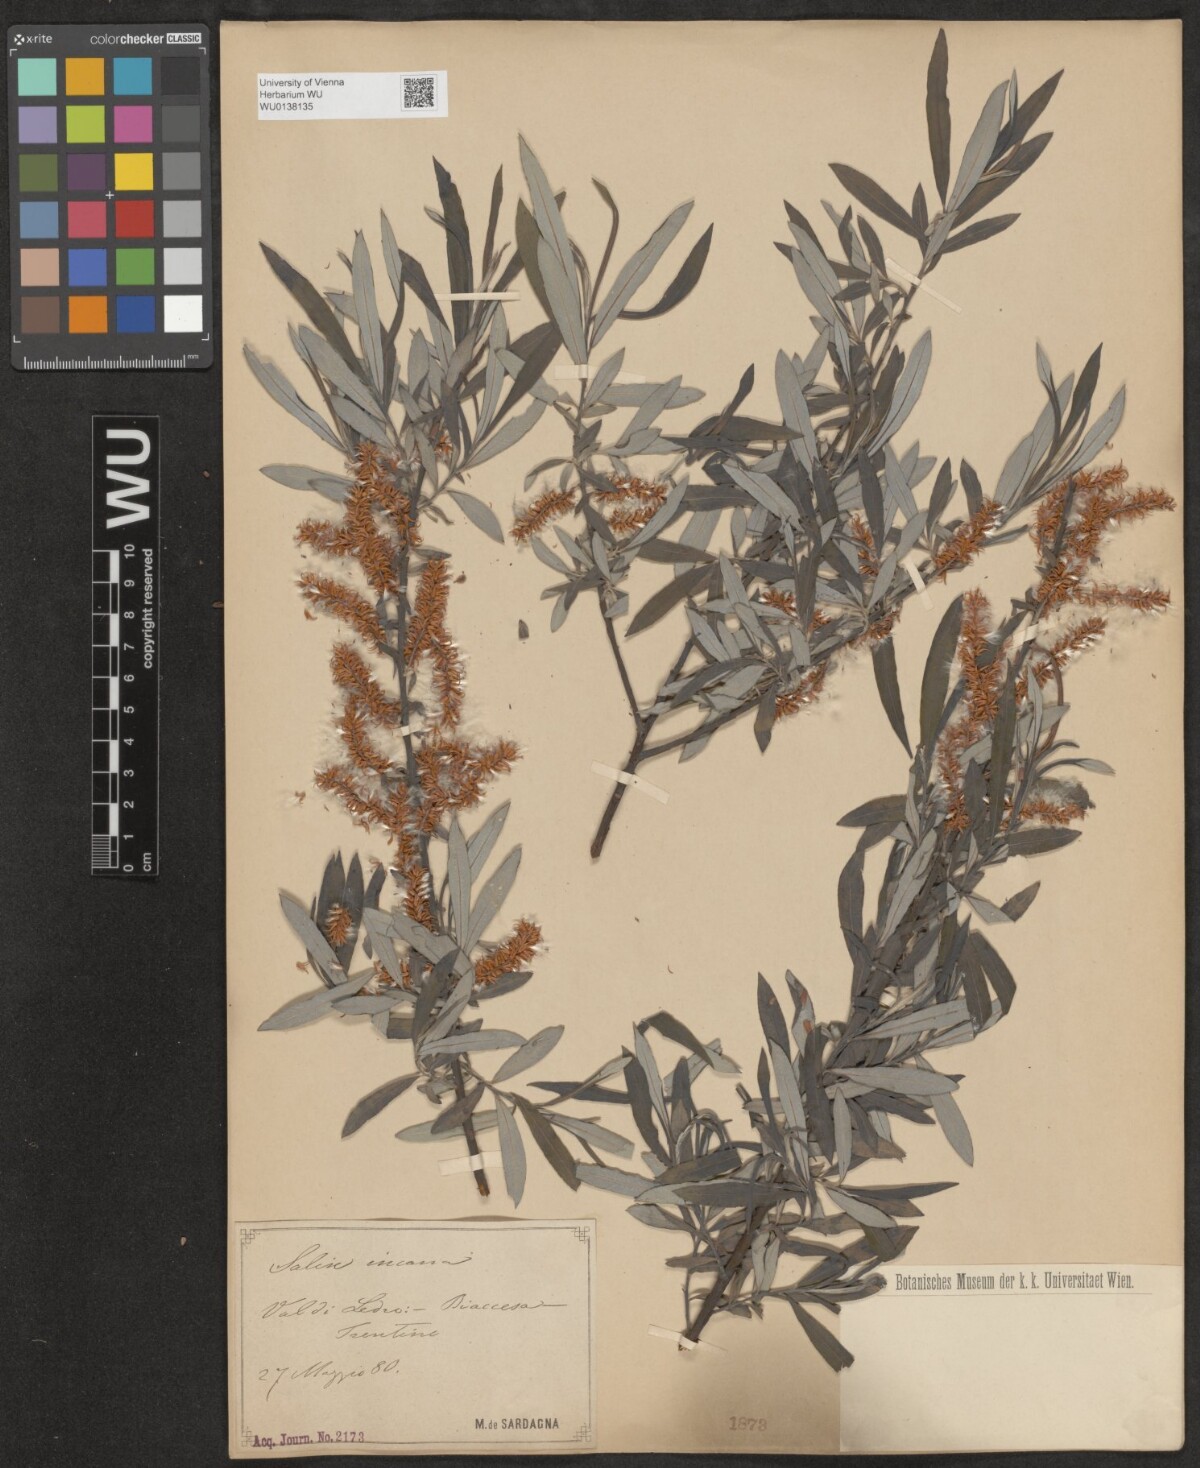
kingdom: Plantae
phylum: Tracheophyta
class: Magnoliopsida
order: Malpighiales
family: Salicaceae
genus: Salix
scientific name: Salix eleagnos
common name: Elaeagnus willow
